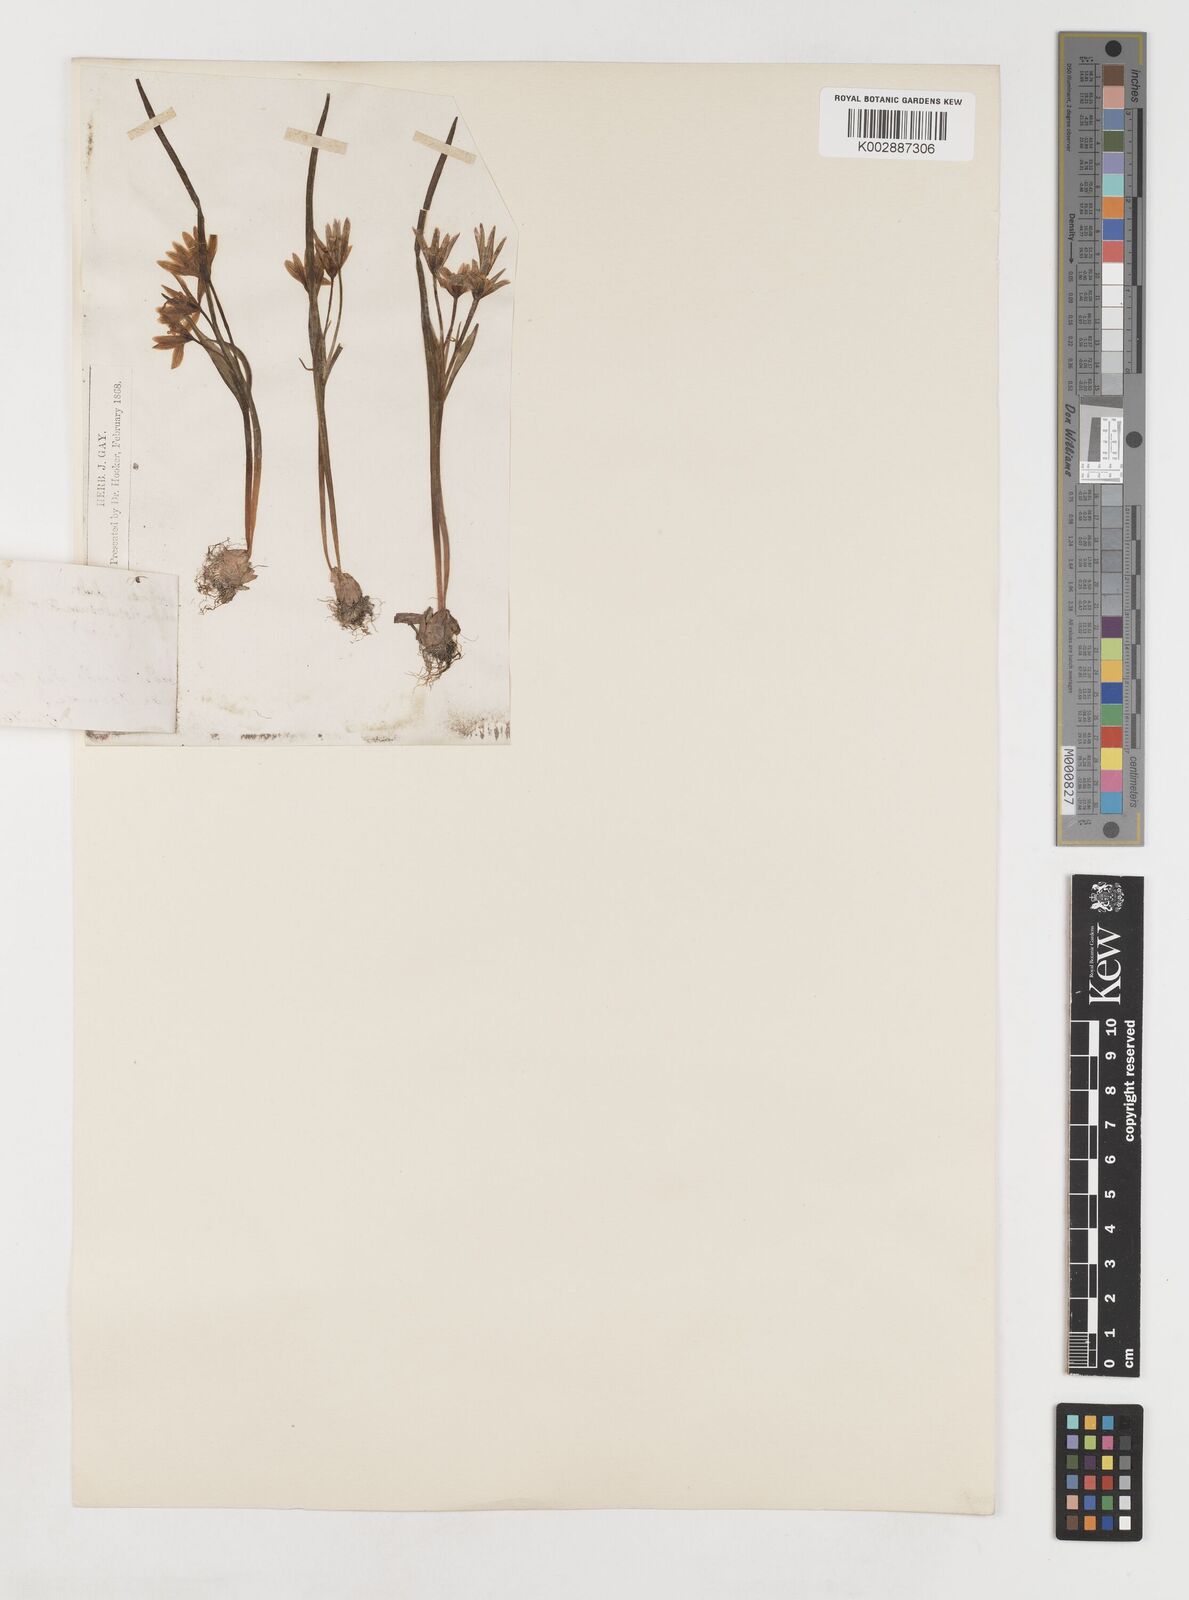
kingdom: Plantae
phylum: Tracheophyta
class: Liliopsida
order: Liliales
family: Liliaceae
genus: Gagea
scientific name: Gagea bohemica
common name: Early star-of-bethlehem
